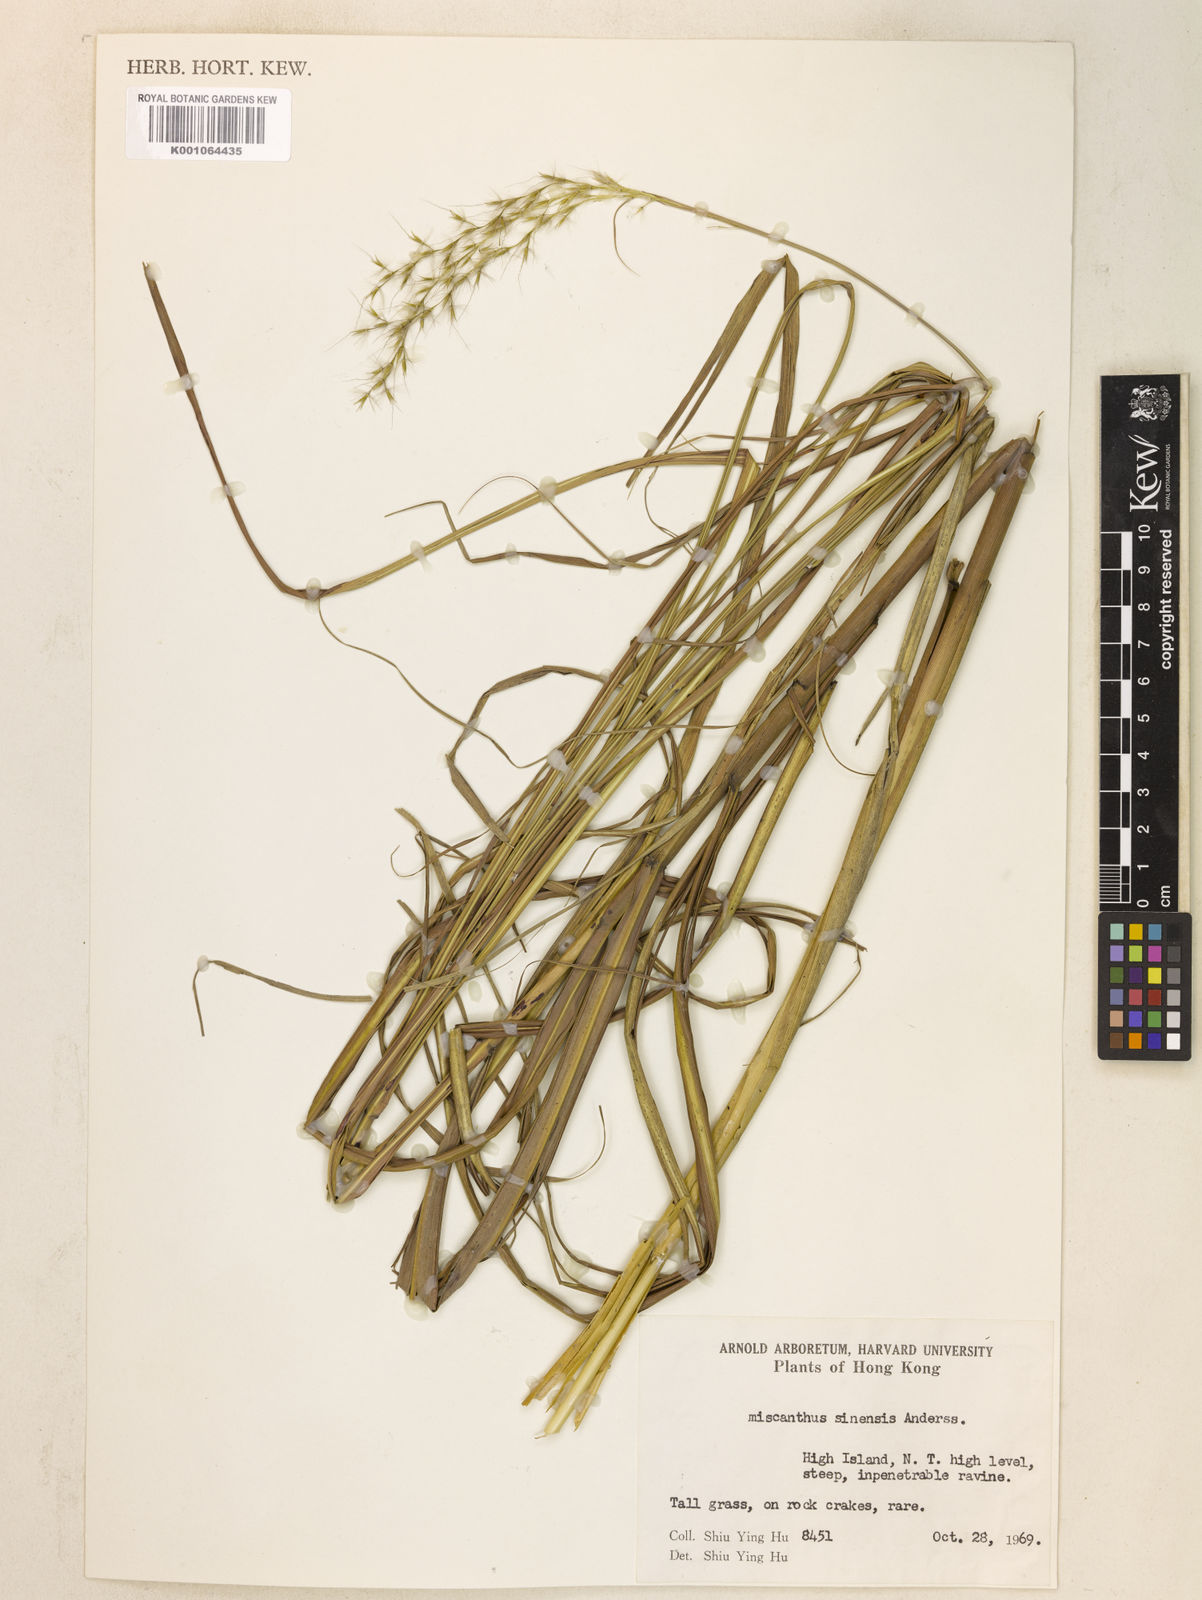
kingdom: Plantae
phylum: Tracheophyta
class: Liliopsida
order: Poales
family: Poaceae
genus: Miscanthus
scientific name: Miscanthus sinensis
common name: Chinese silvergrass
